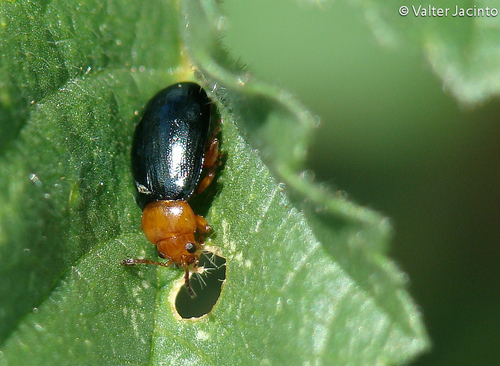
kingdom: Animalia
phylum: Arthropoda
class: Insecta
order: Coleoptera
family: Chrysomelidae
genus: Podagrica
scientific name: Podagrica fuscicornis
